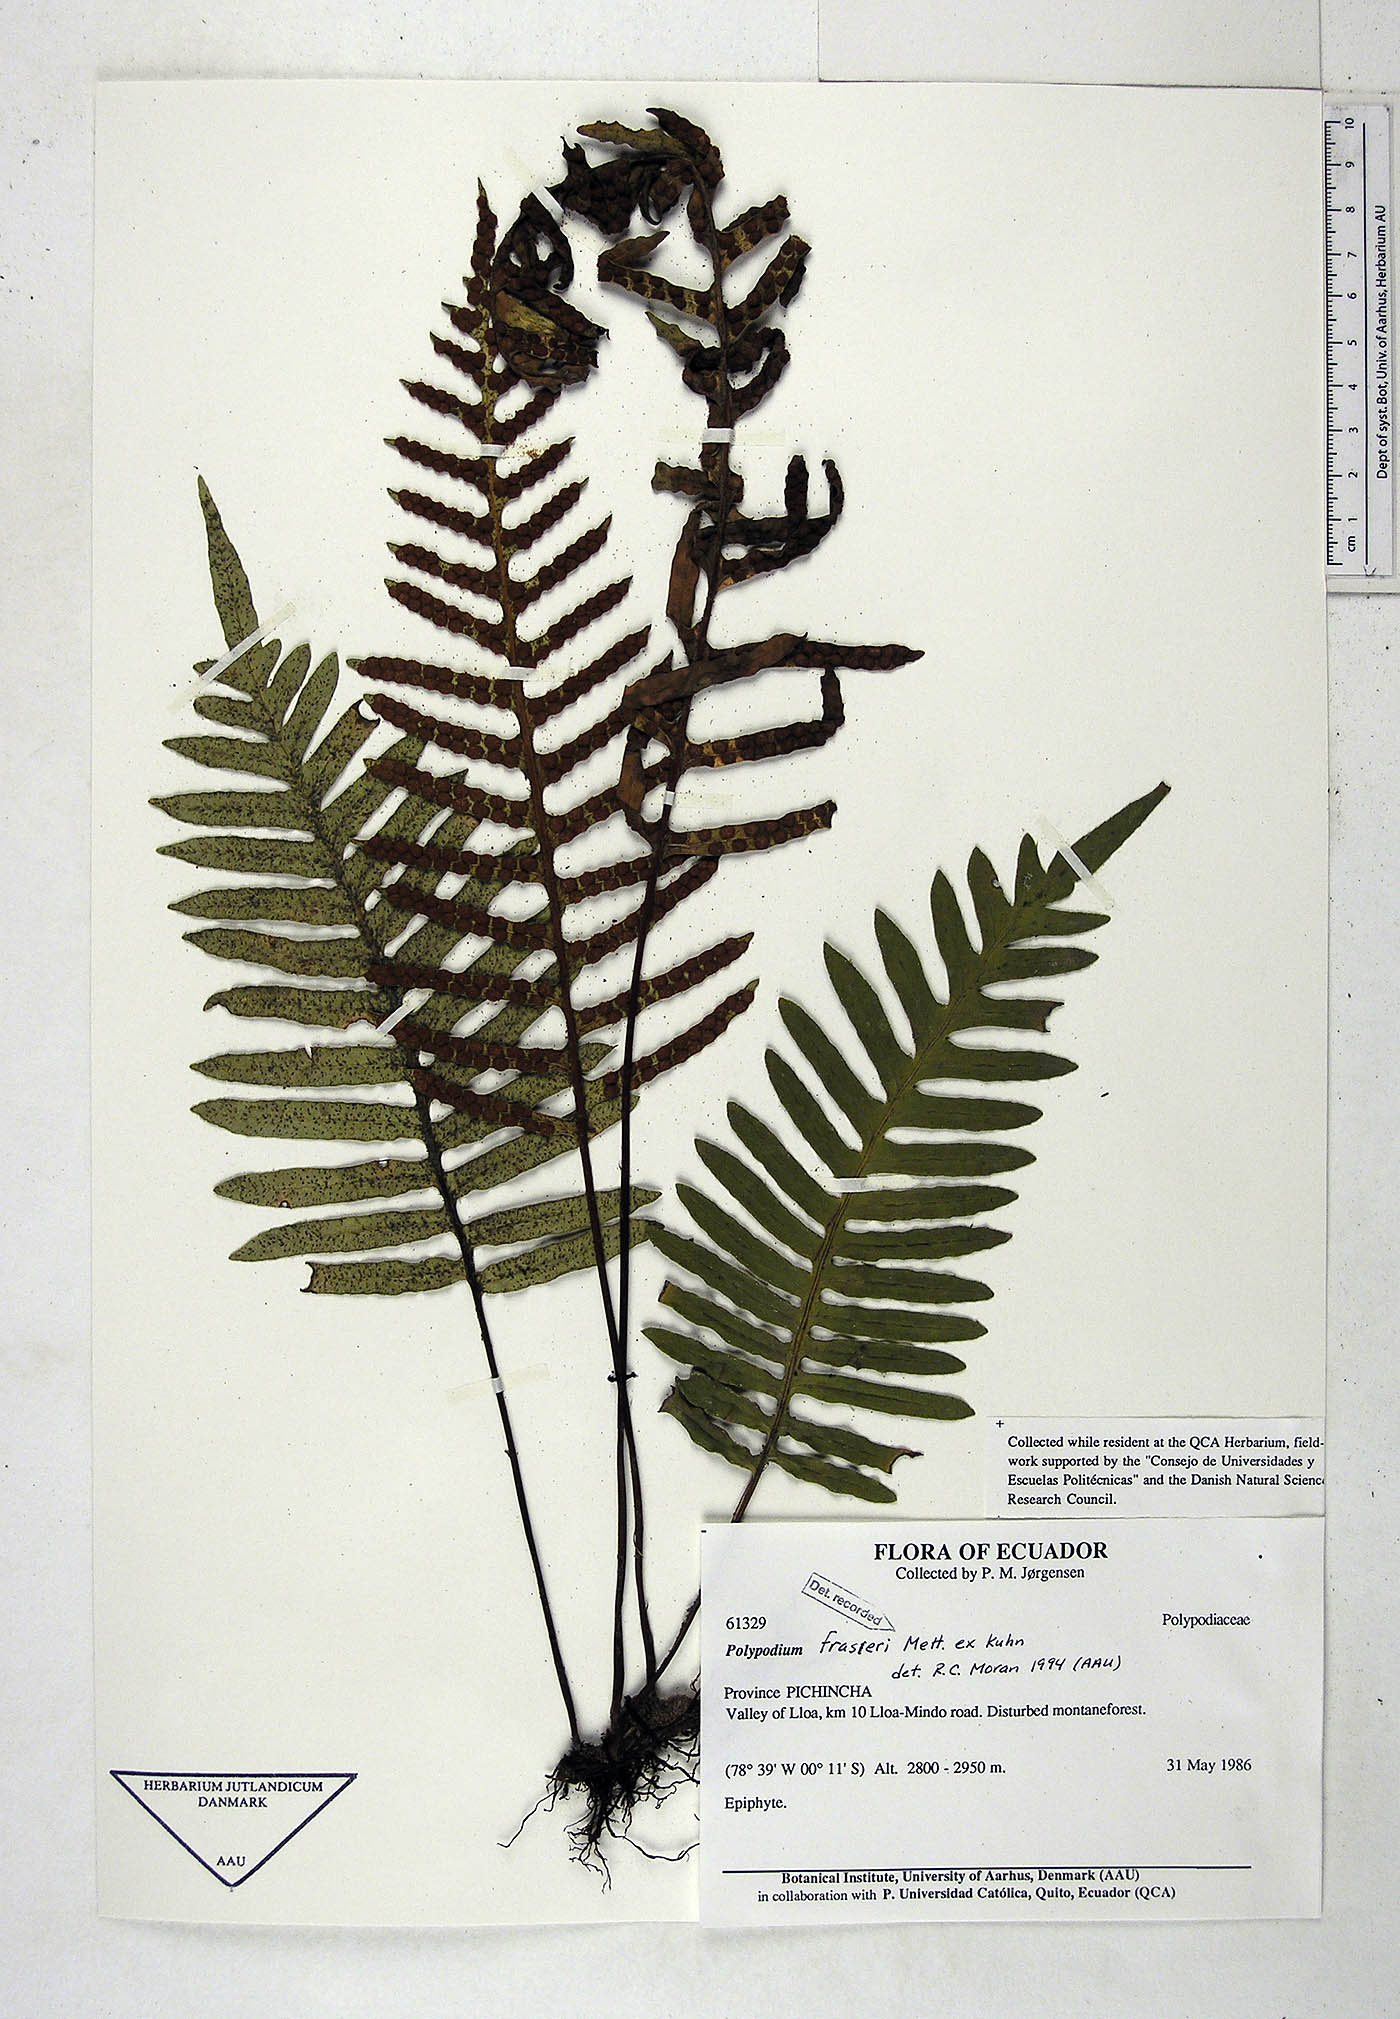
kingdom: Plantae
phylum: Tracheophyta
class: Polypodiopsida
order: Polypodiales
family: Polypodiaceae
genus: Pleopeltis
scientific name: Pleopeltis fraseri
